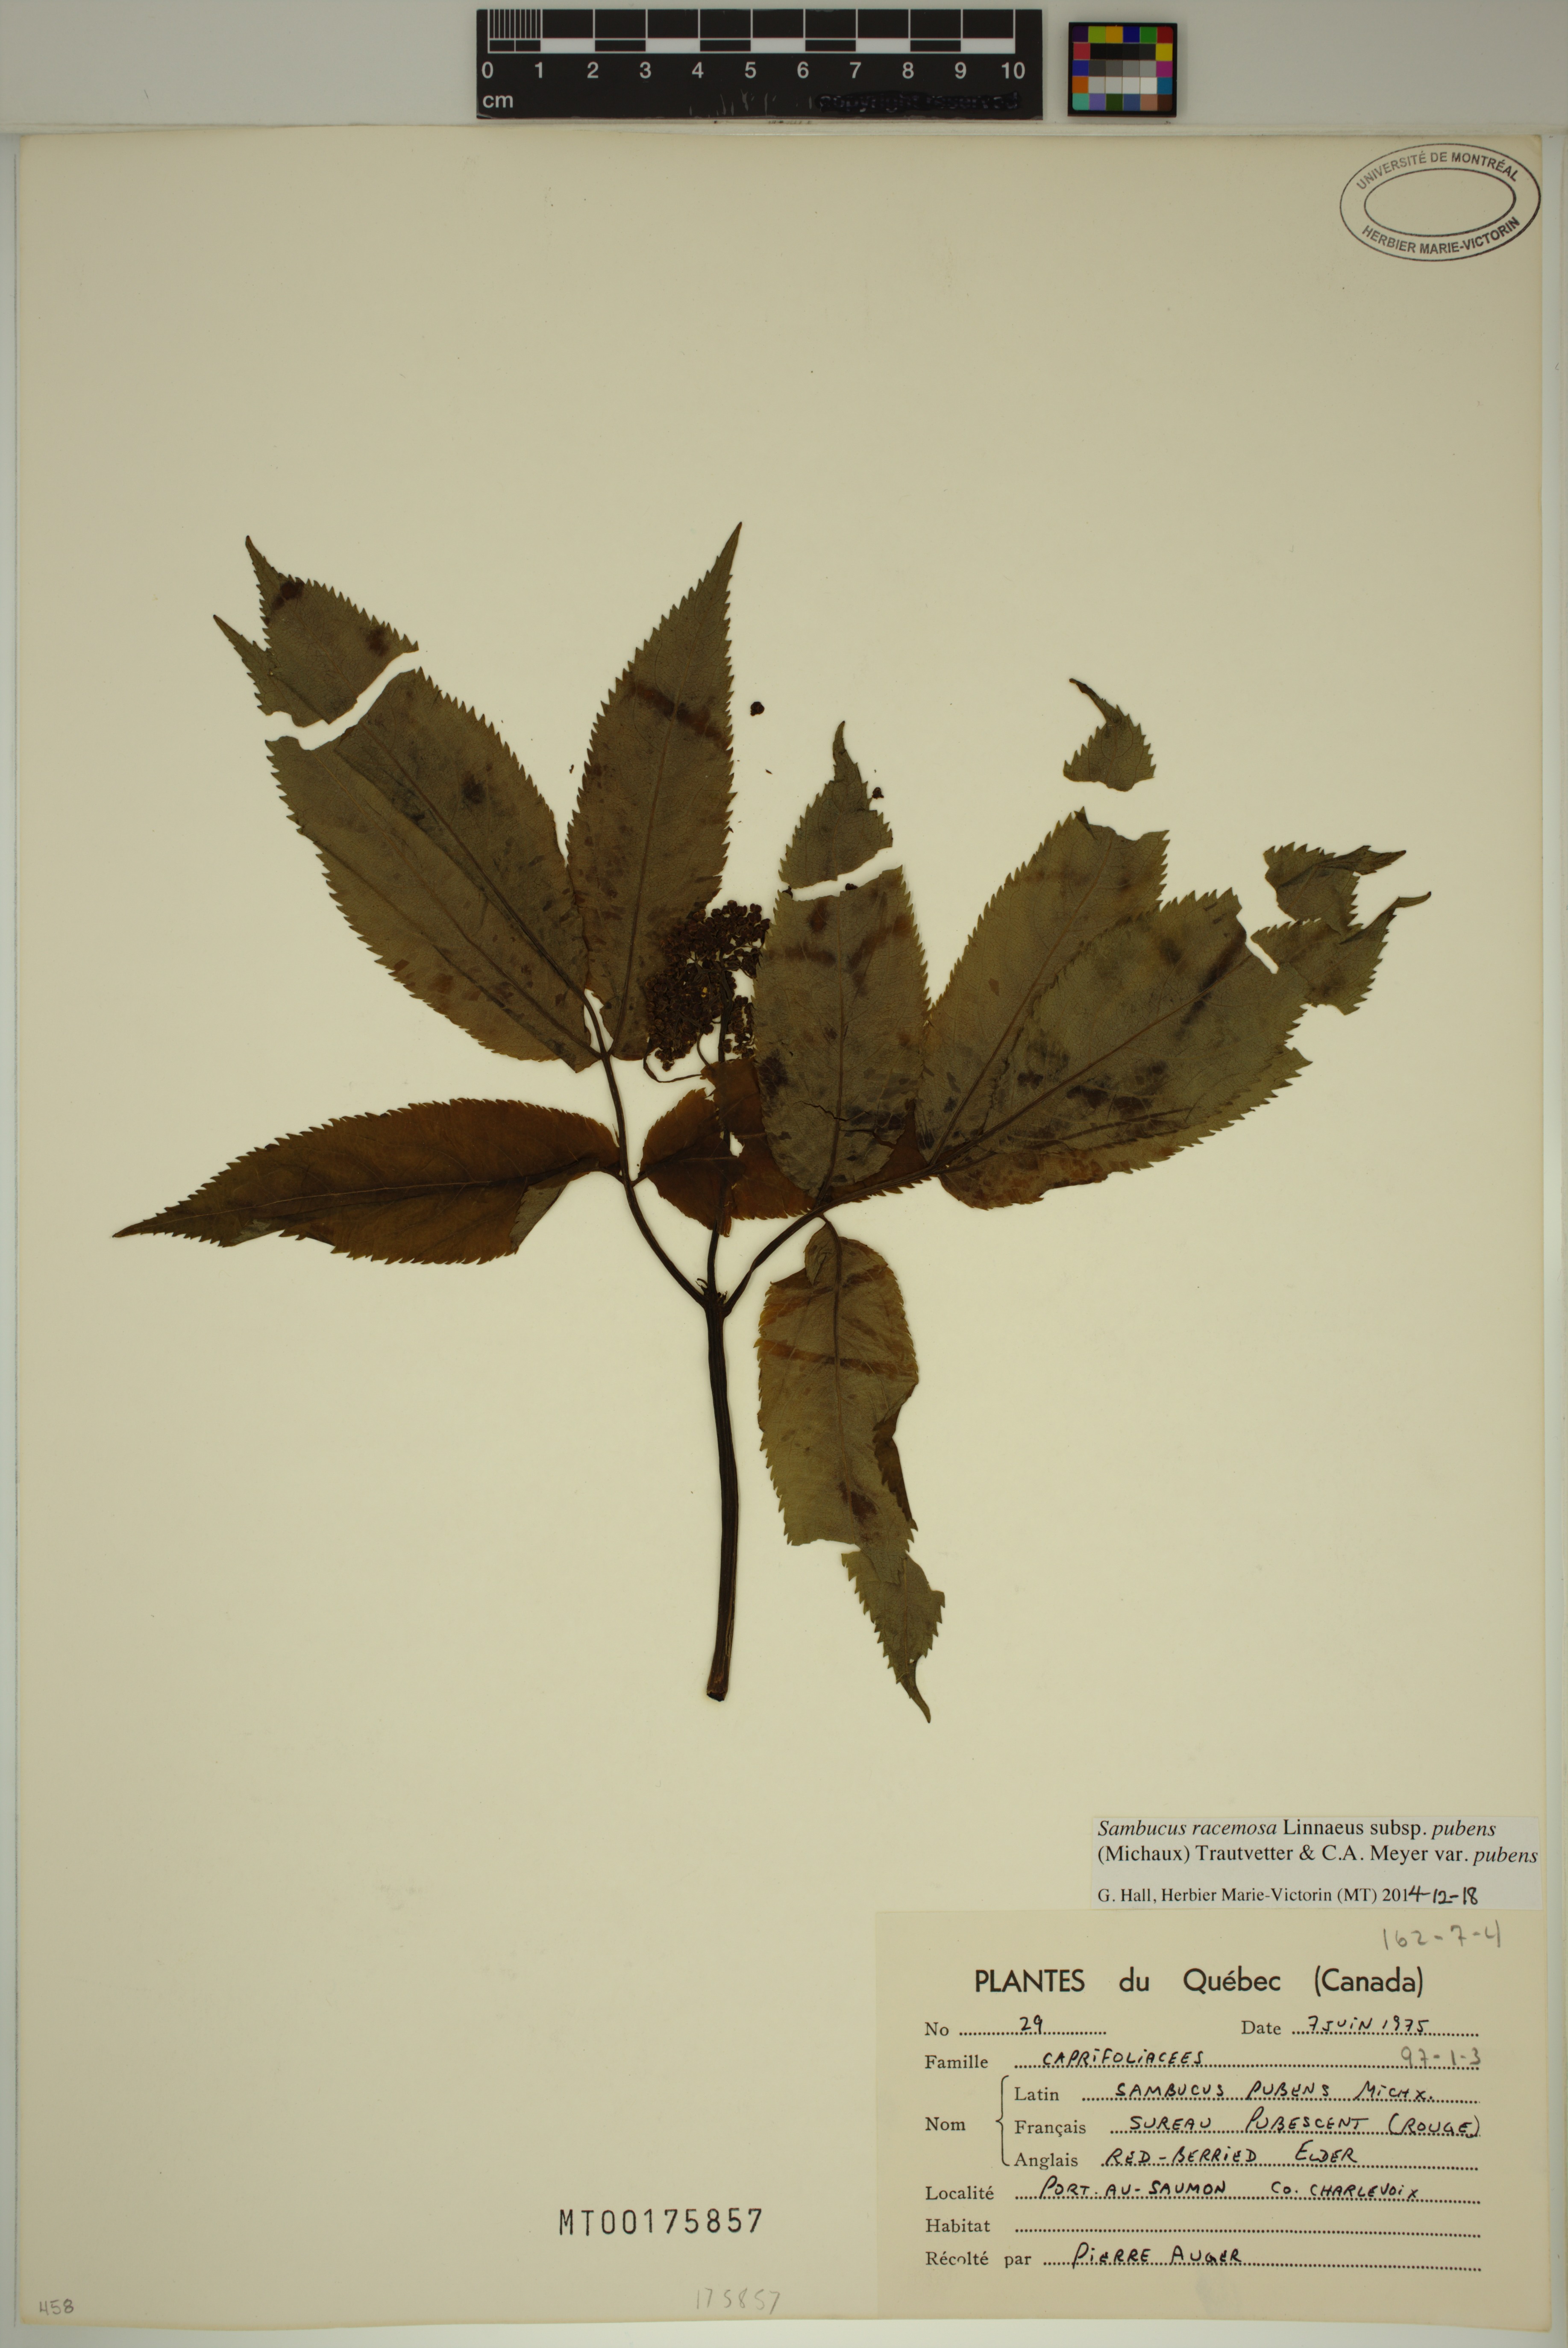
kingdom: Plantae
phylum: Tracheophyta
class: Magnoliopsida
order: Dipsacales
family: Viburnaceae
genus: Sambucus
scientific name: Sambucus racemosa
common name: Red-berried elder
